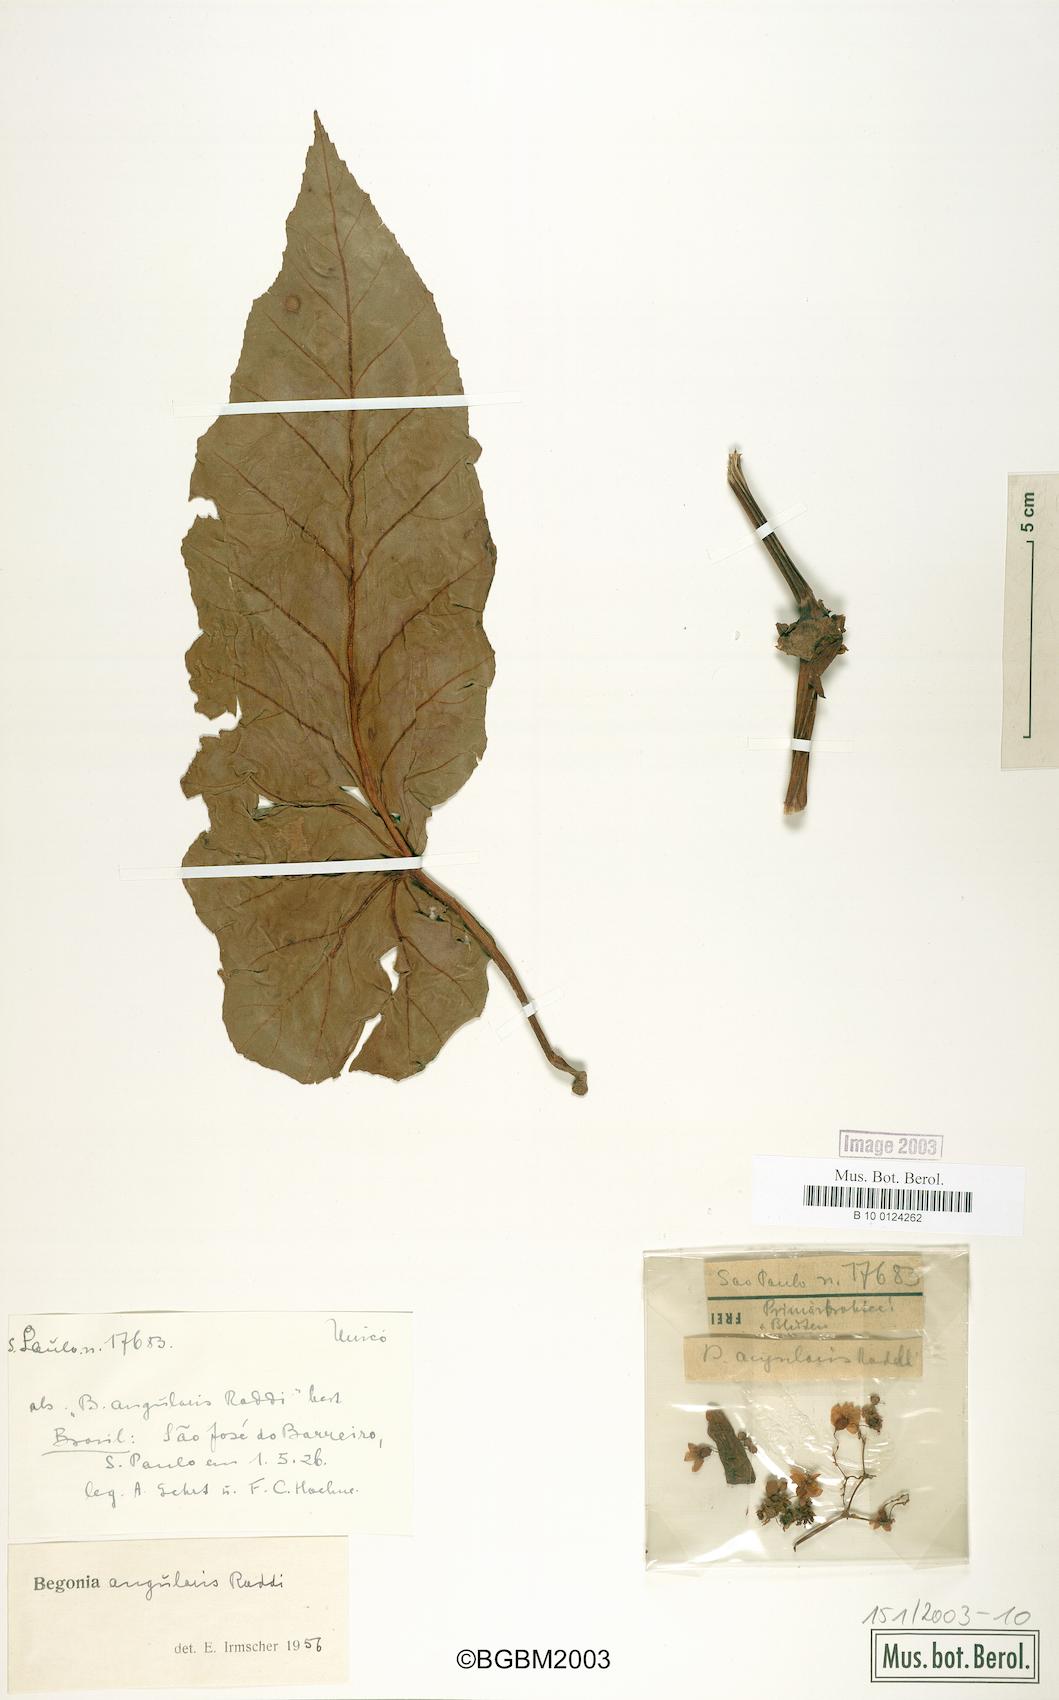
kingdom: Plantae
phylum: Tracheophyta
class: Magnoliopsida
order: Cucurbitales
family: Begoniaceae
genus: Begonia
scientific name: Begonia angularis
